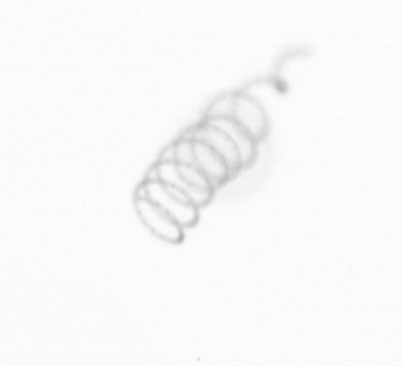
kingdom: Chromista
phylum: Ochrophyta
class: Bacillariophyceae
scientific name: Bacillariophyceae
